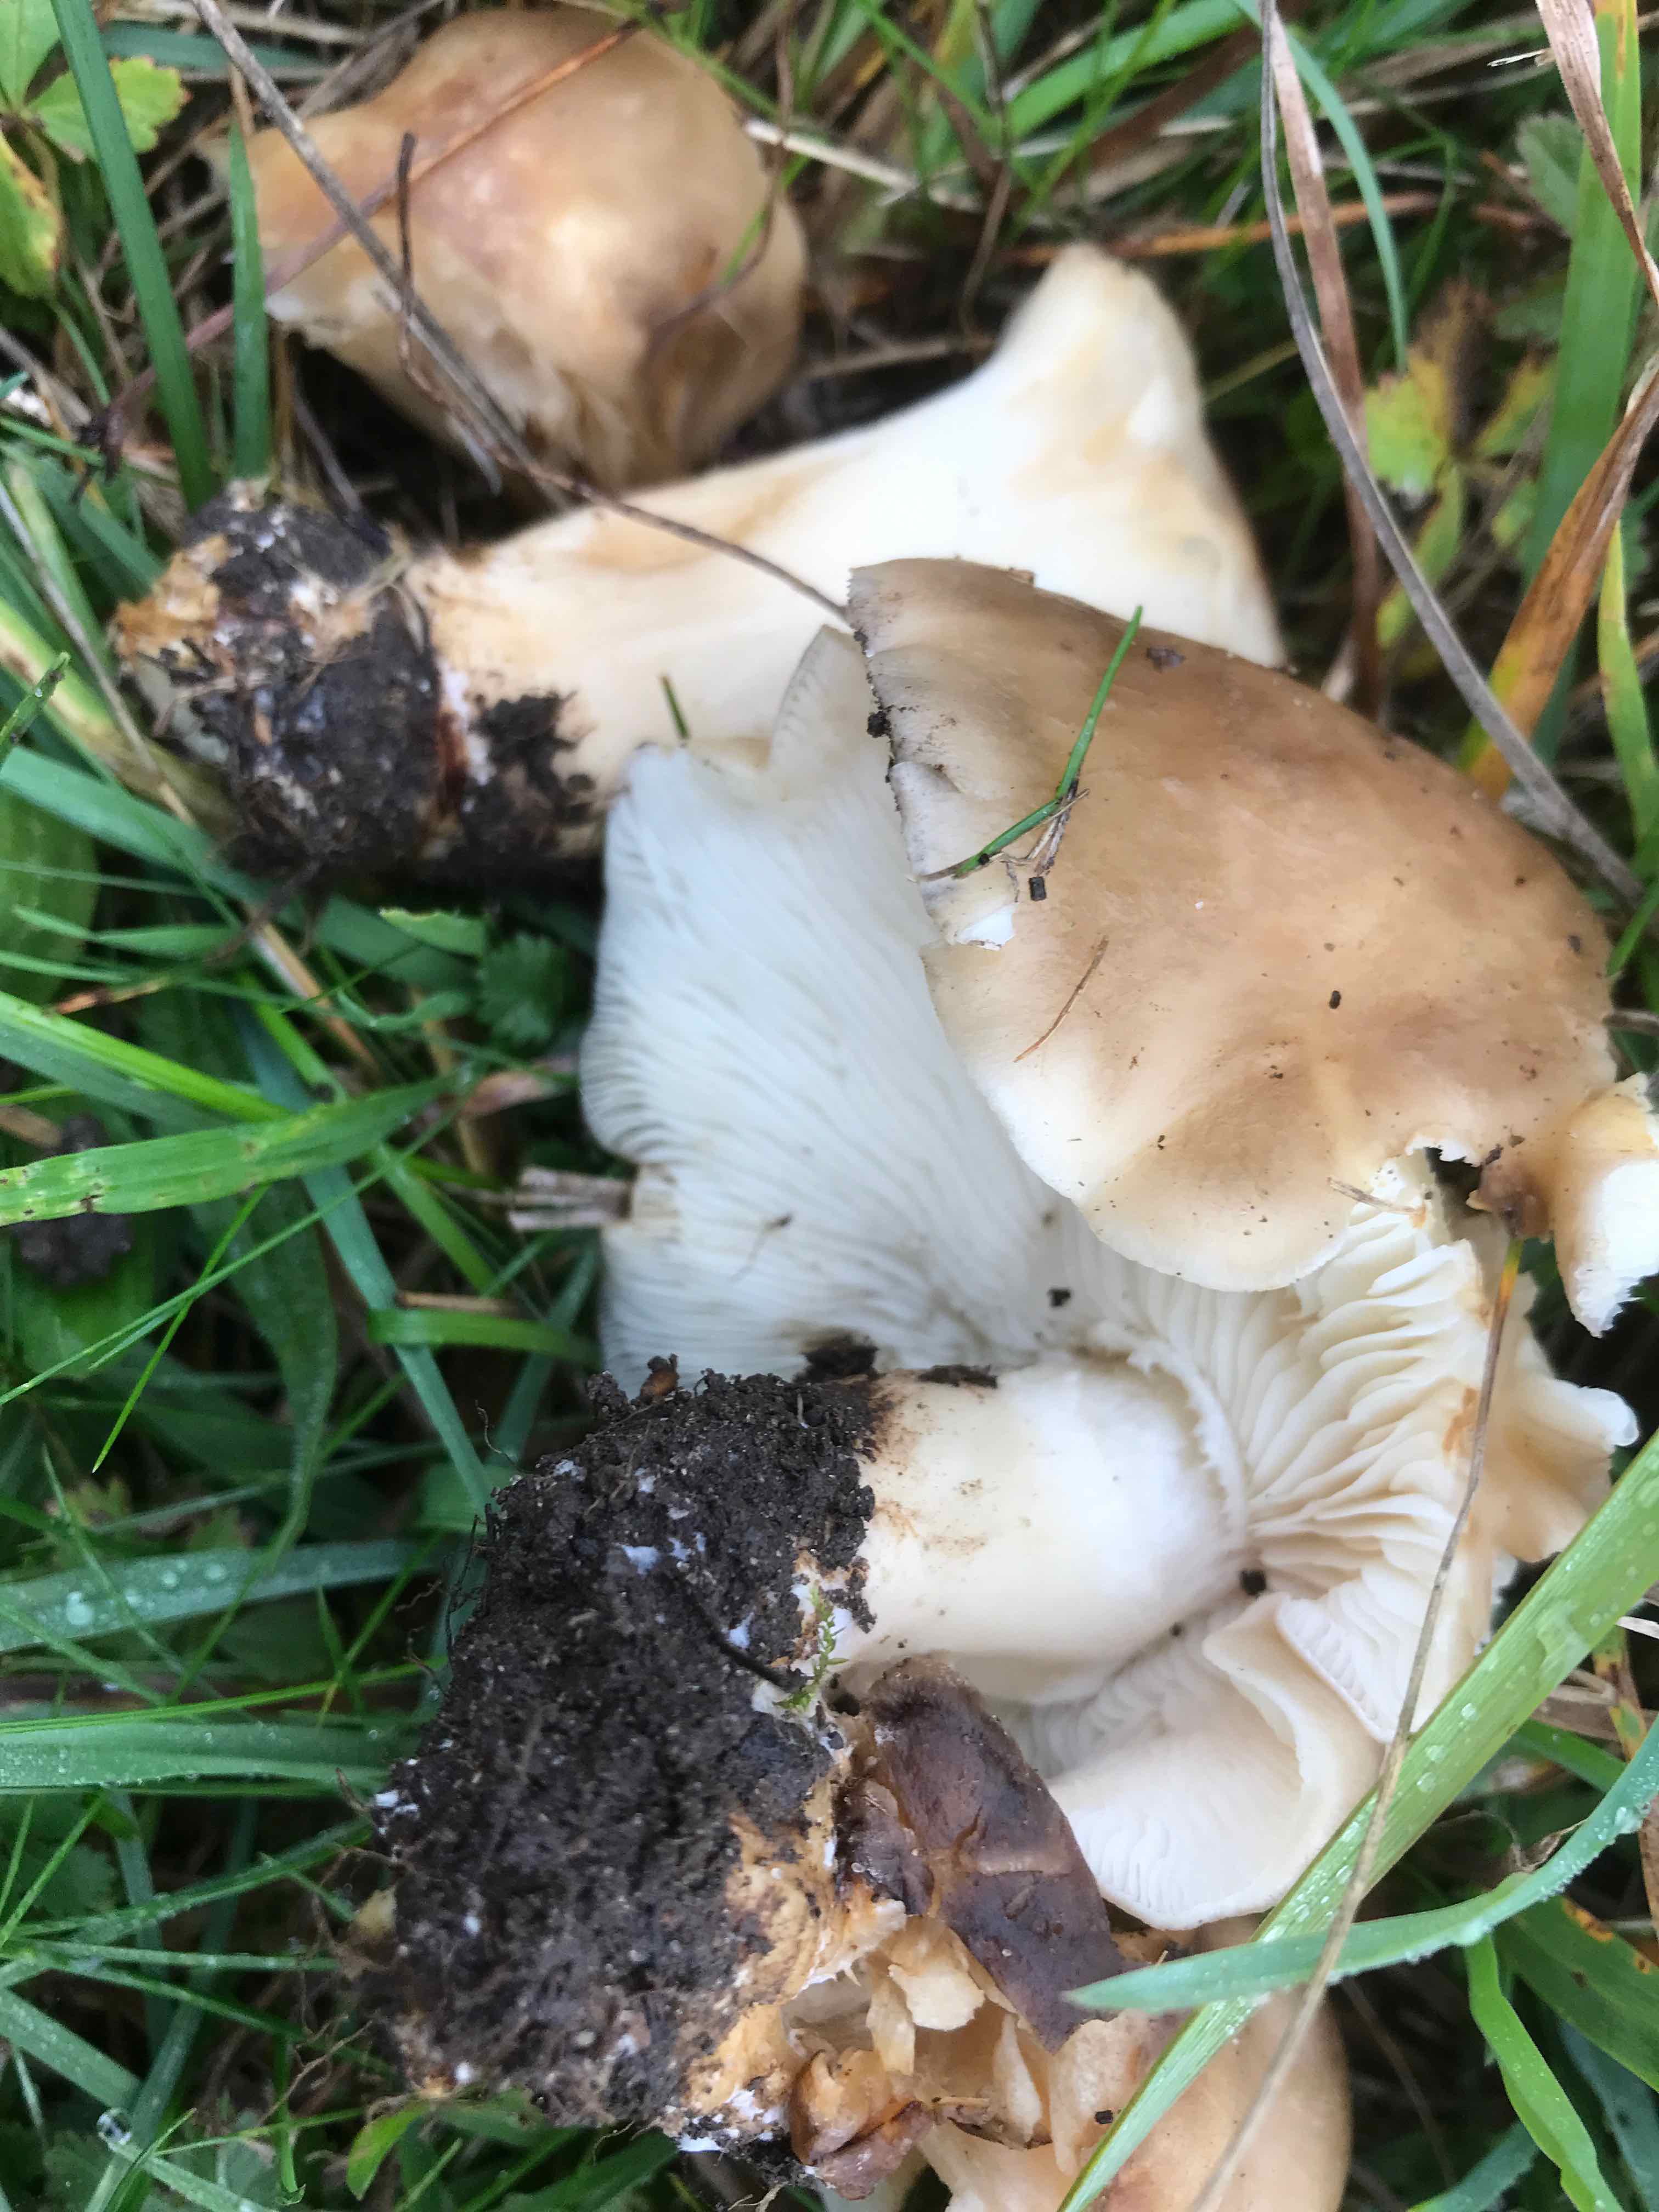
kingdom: Fungi
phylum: Basidiomycota
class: Agaricomycetes
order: Agaricales
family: Lyophyllaceae
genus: Lyophyllum
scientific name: Lyophyllum decastes
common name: Clustered domecap
